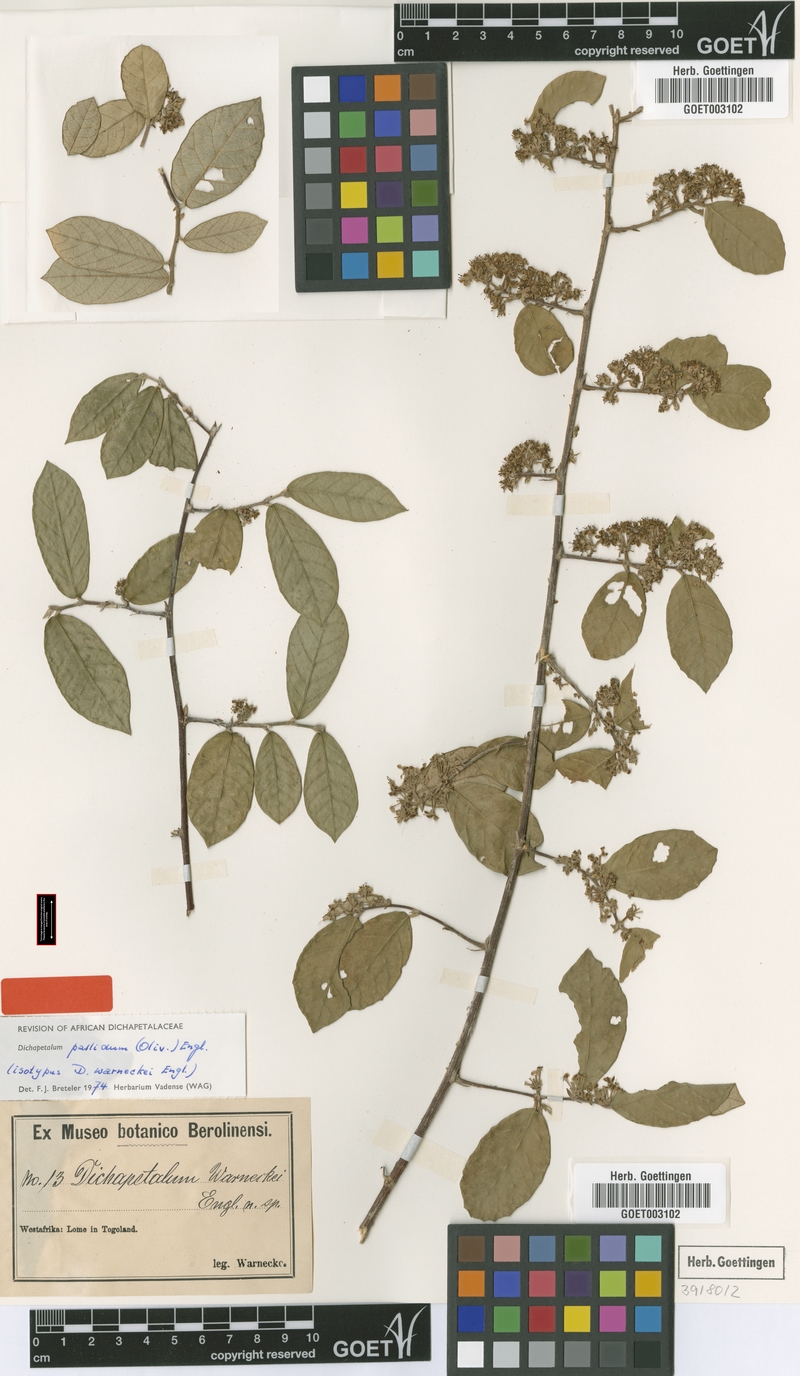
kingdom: Plantae
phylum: Tracheophyta
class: Magnoliopsida
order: Malpighiales
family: Dichapetalaceae
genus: Dichapetalum
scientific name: Dichapetalum pallidum
